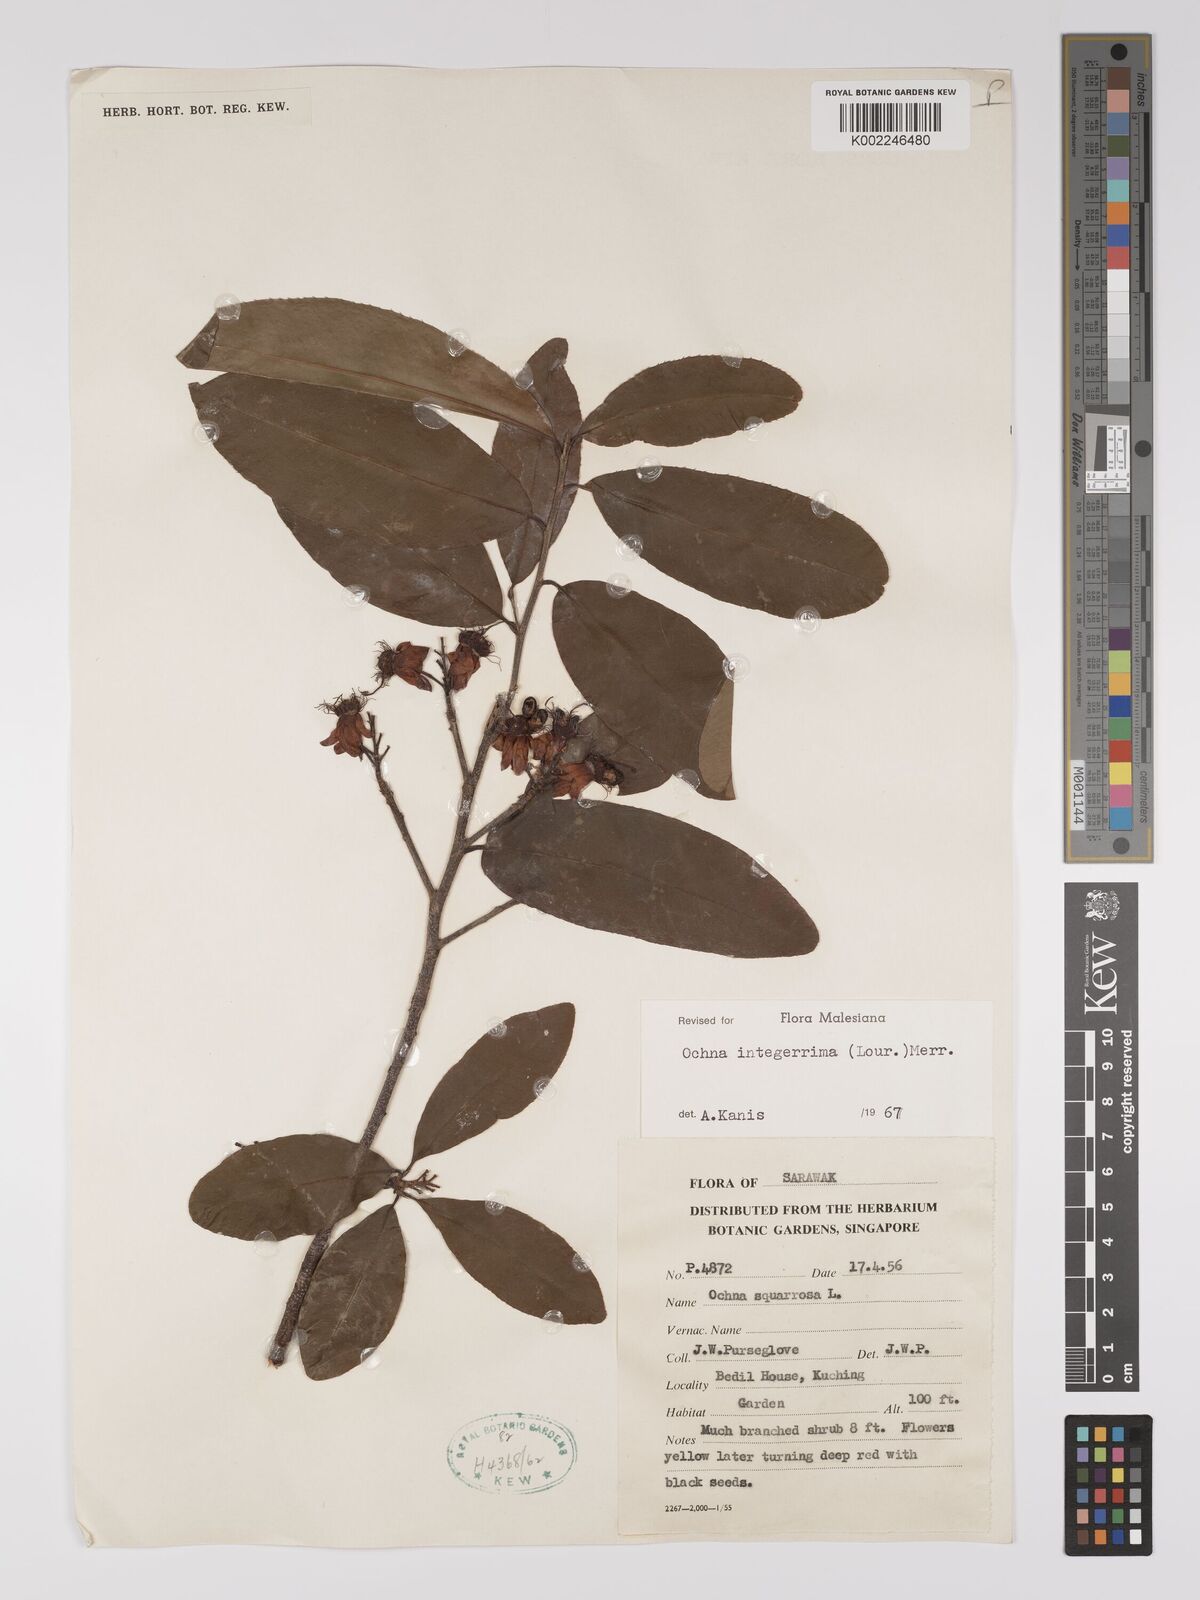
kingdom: Plantae
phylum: Tracheophyta
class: Magnoliopsida
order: Malpighiales
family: Ochnaceae
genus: Ochna
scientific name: Ochna integerrima
